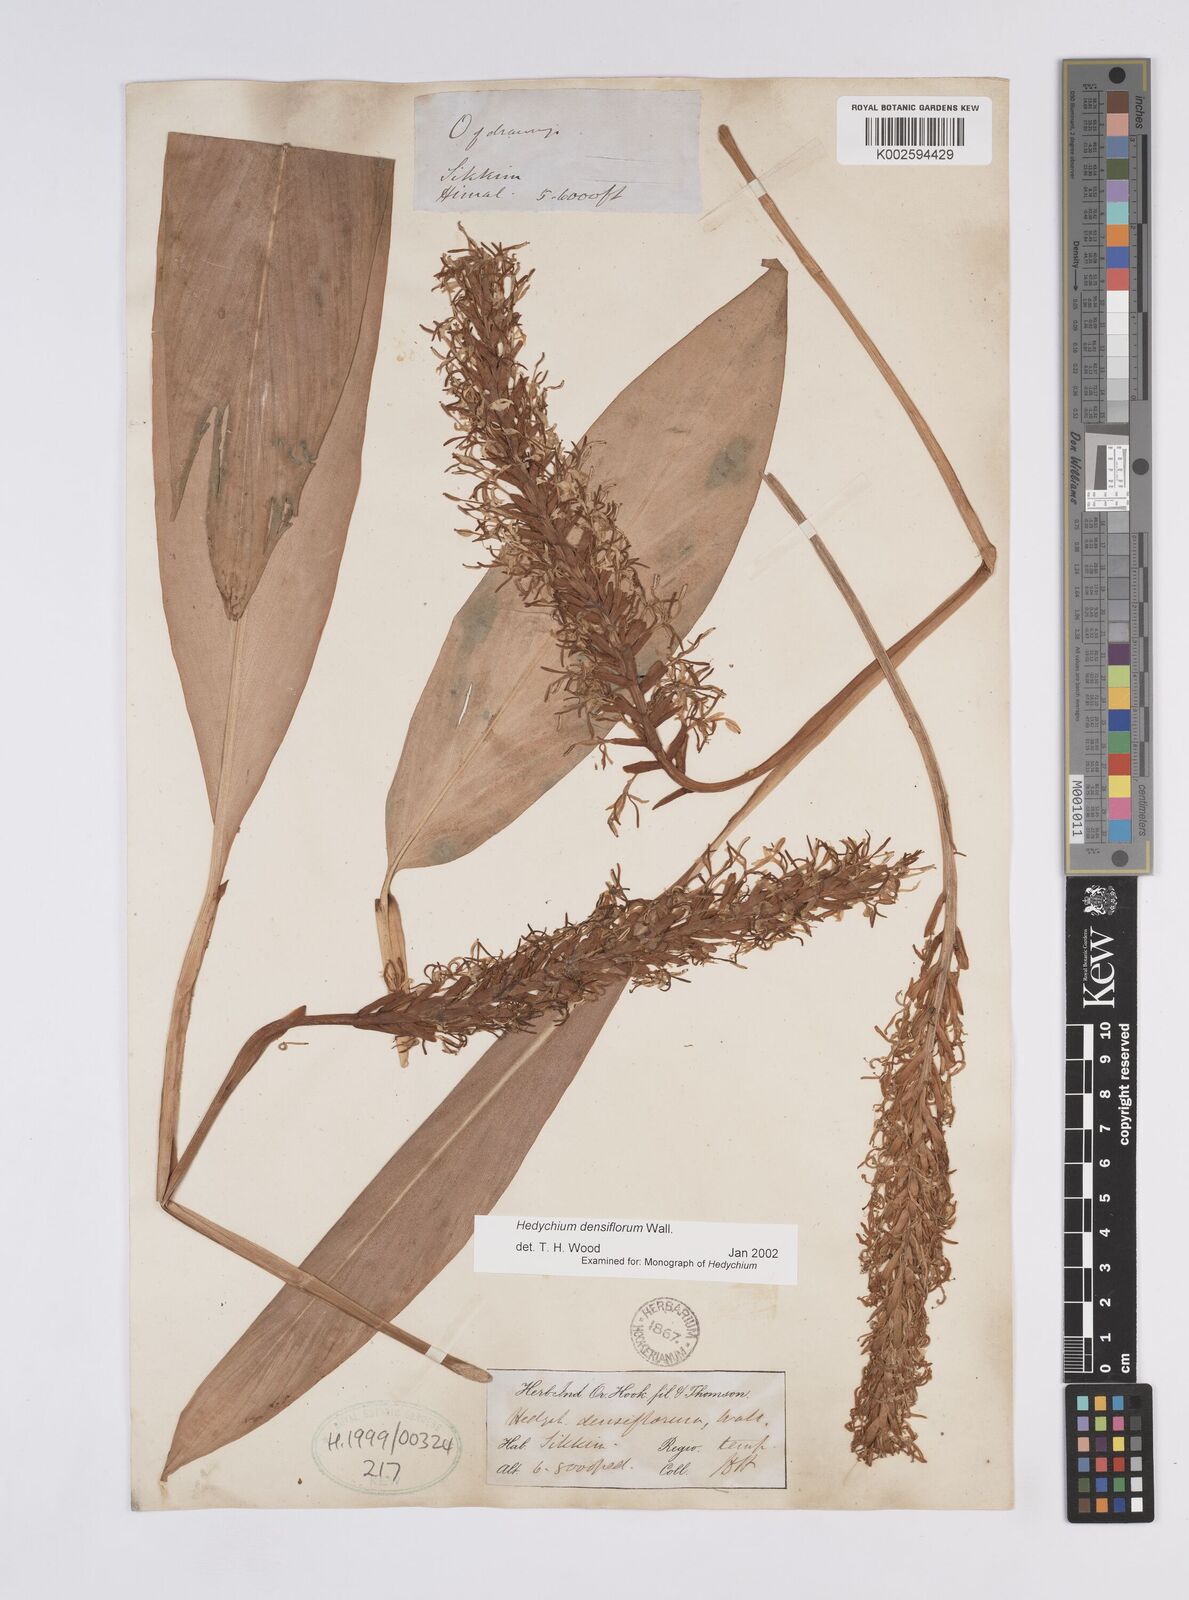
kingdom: Plantae
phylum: Tracheophyta
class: Liliopsida
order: Zingiberales
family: Zingiberaceae
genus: Hedychium
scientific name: Hedychium densiflorum
